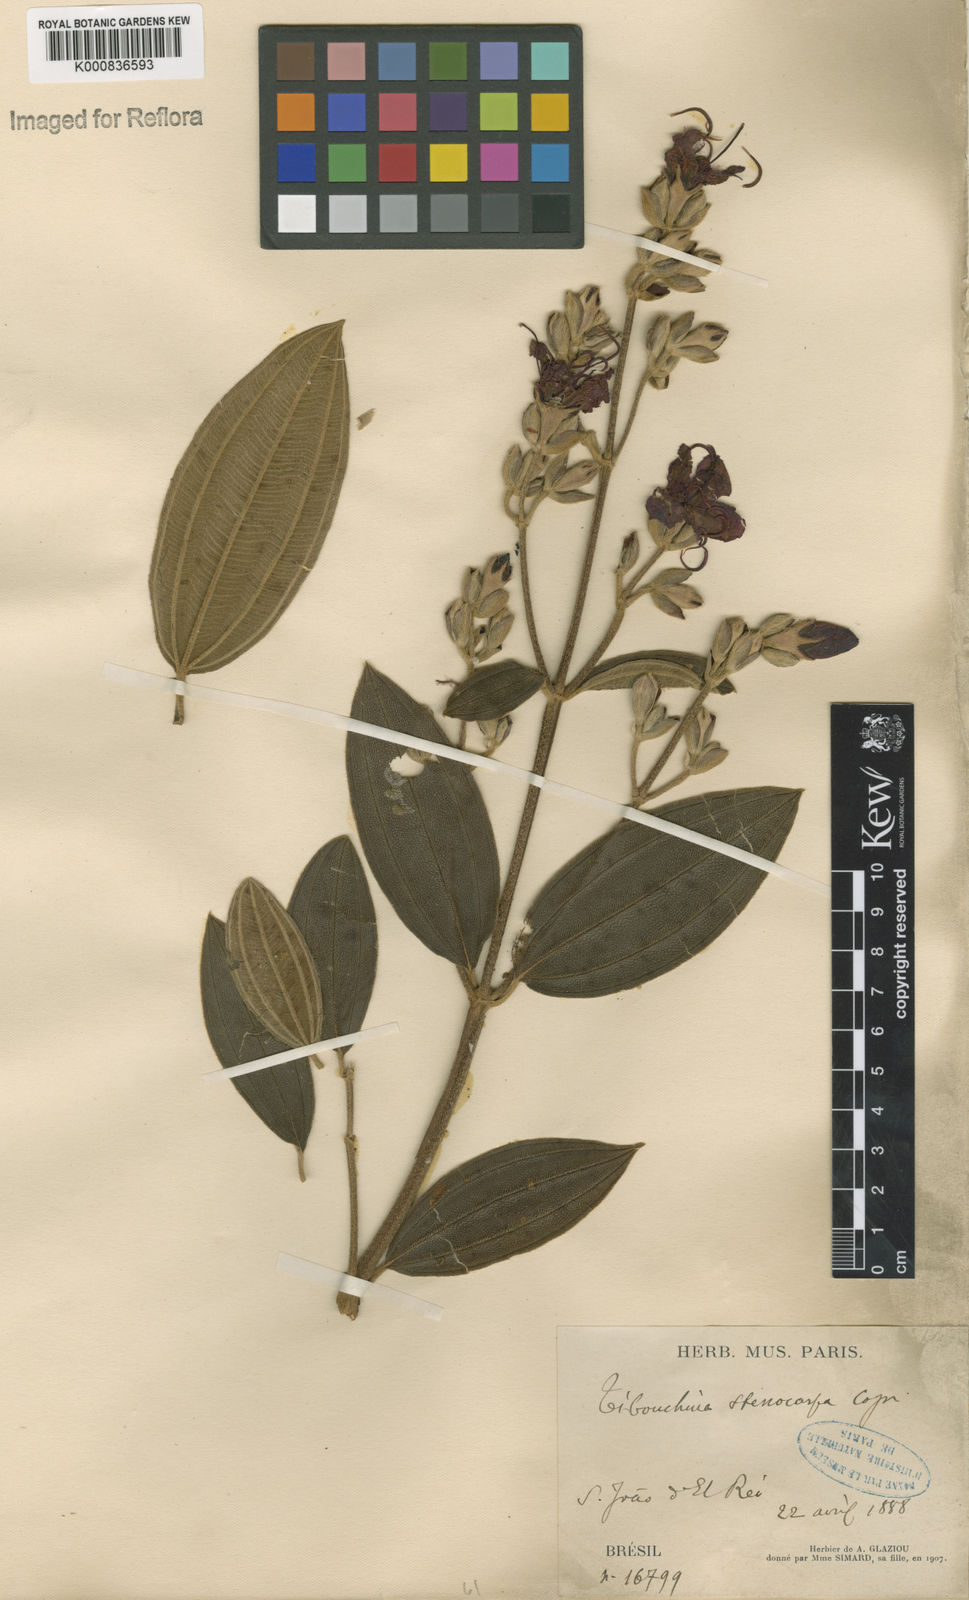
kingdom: Plantae
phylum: Tracheophyta
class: Magnoliopsida
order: Myrtales
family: Melastomataceae
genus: Pleroma
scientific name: Pleroma stenocarpum
